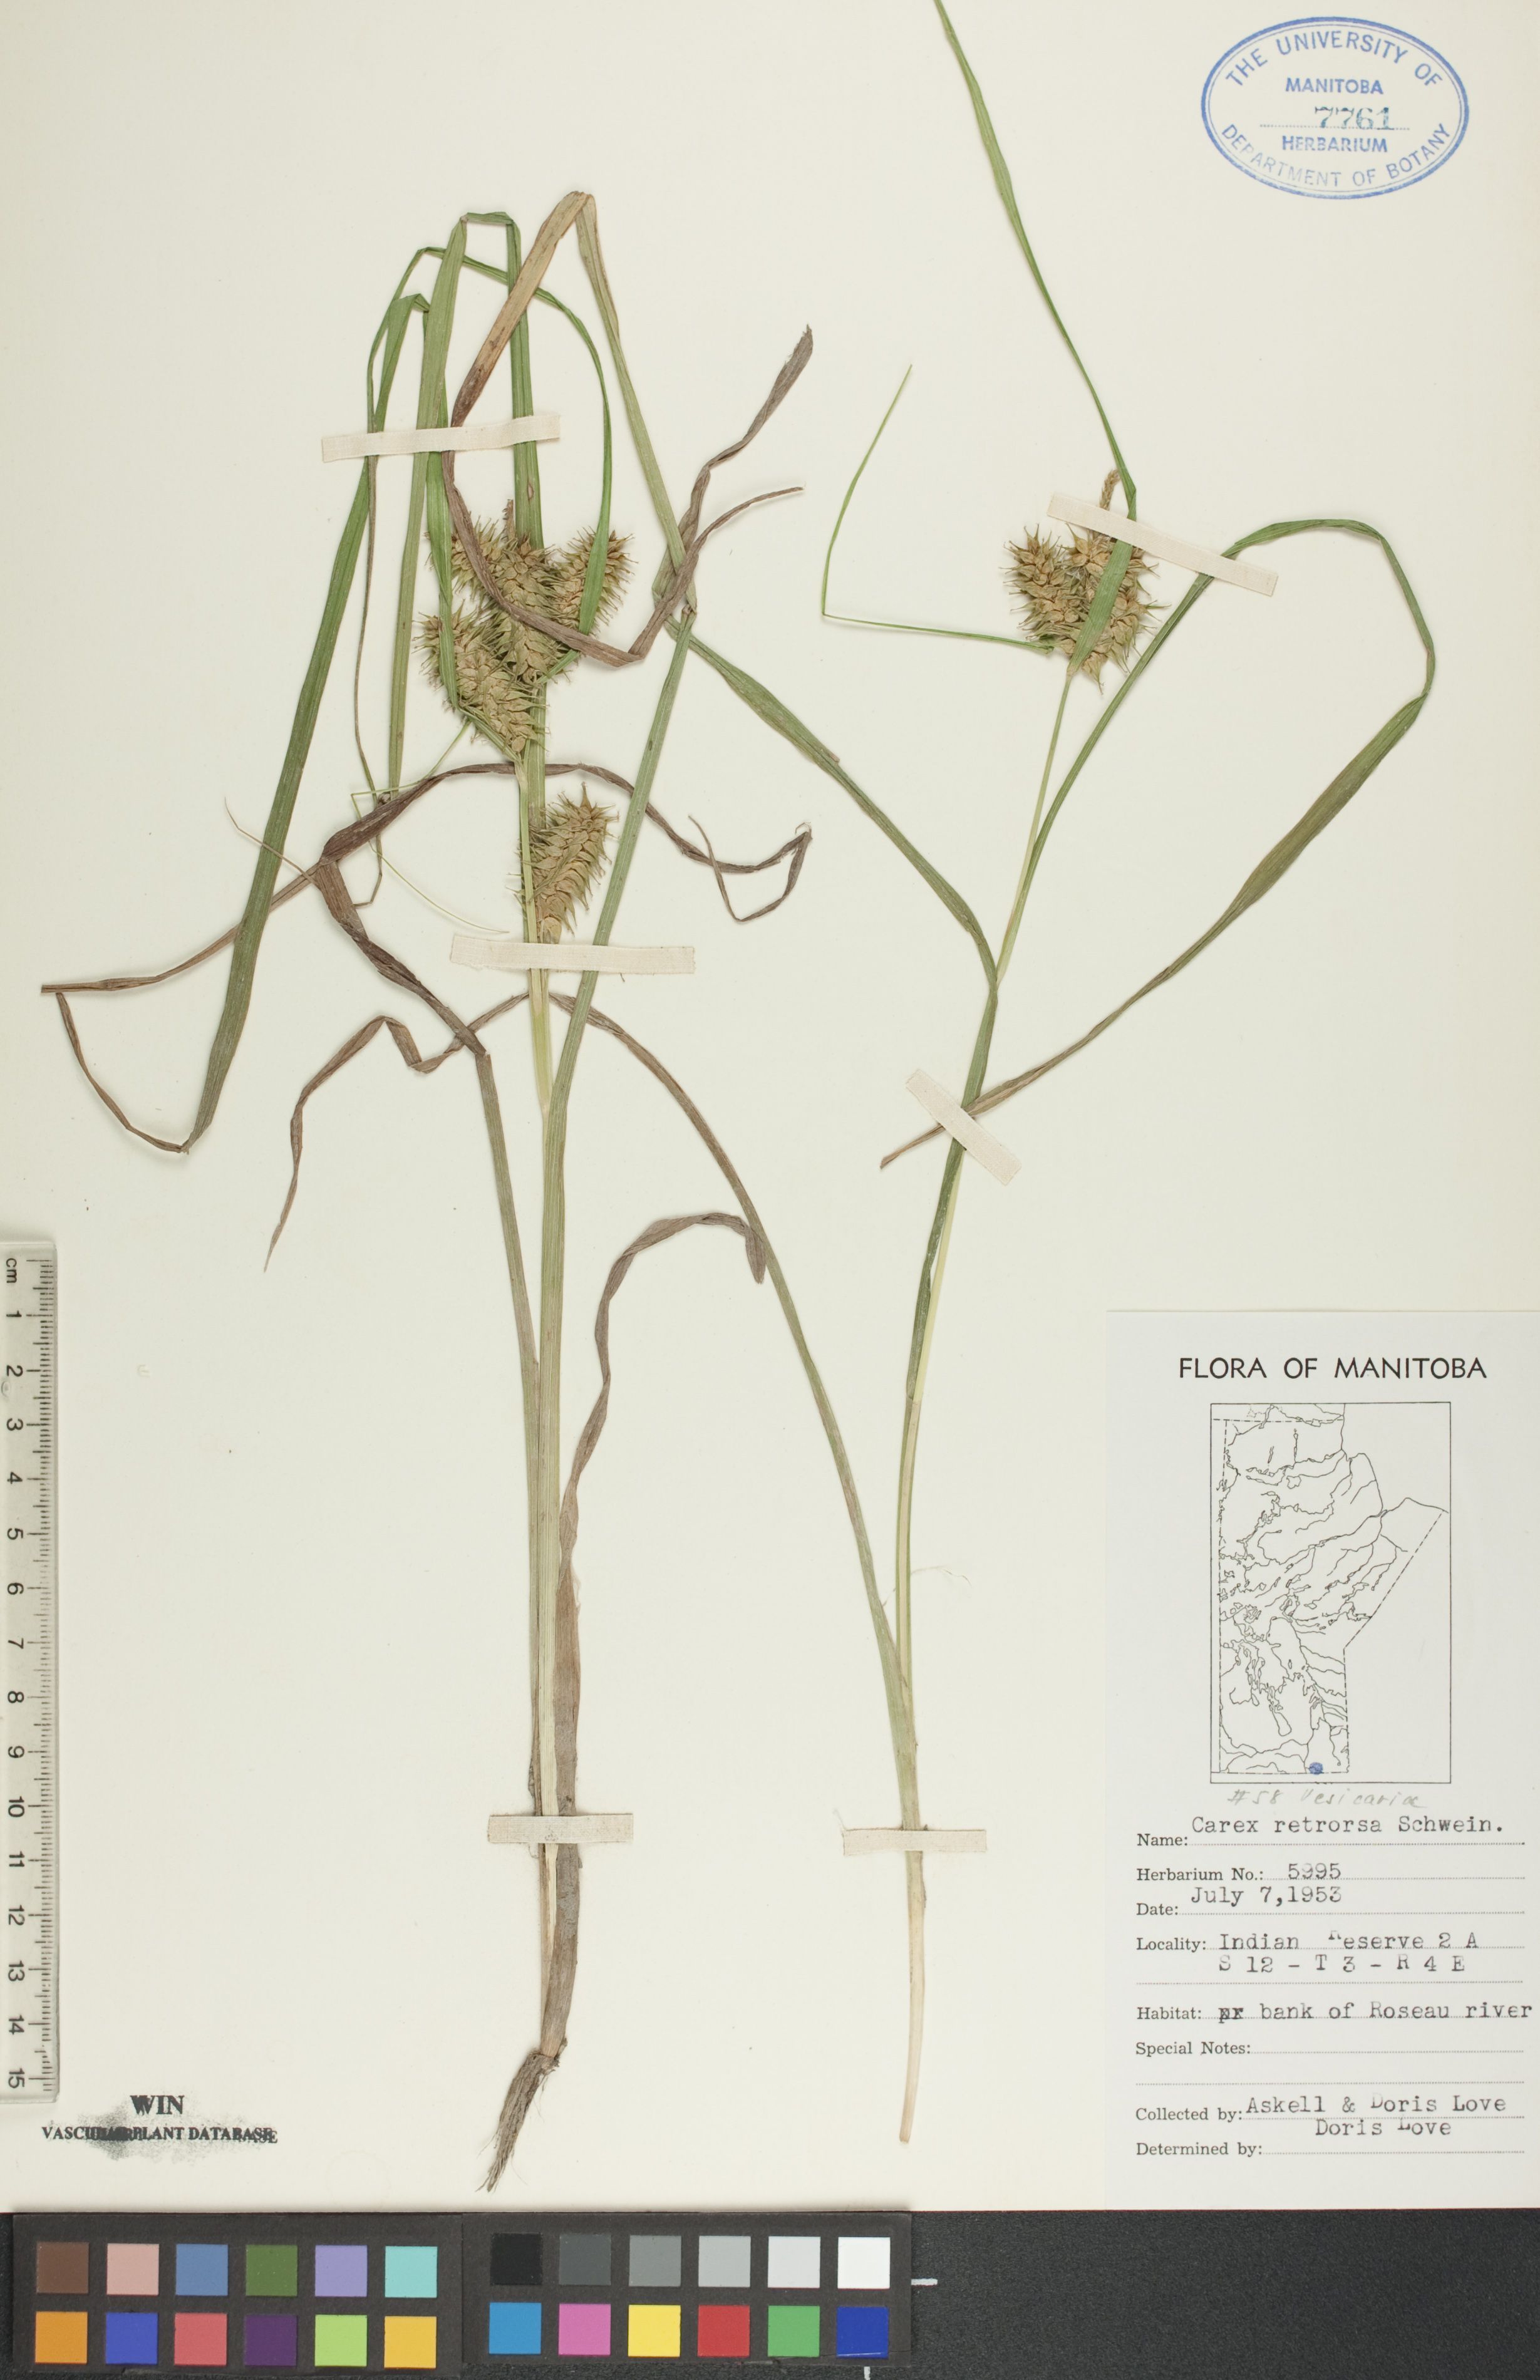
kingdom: Plantae
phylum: Tracheophyta
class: Liliopsida
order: Poales
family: Cyperaceae
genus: Carex
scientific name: Carex retrorsa
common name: Knot-sheath sedge
